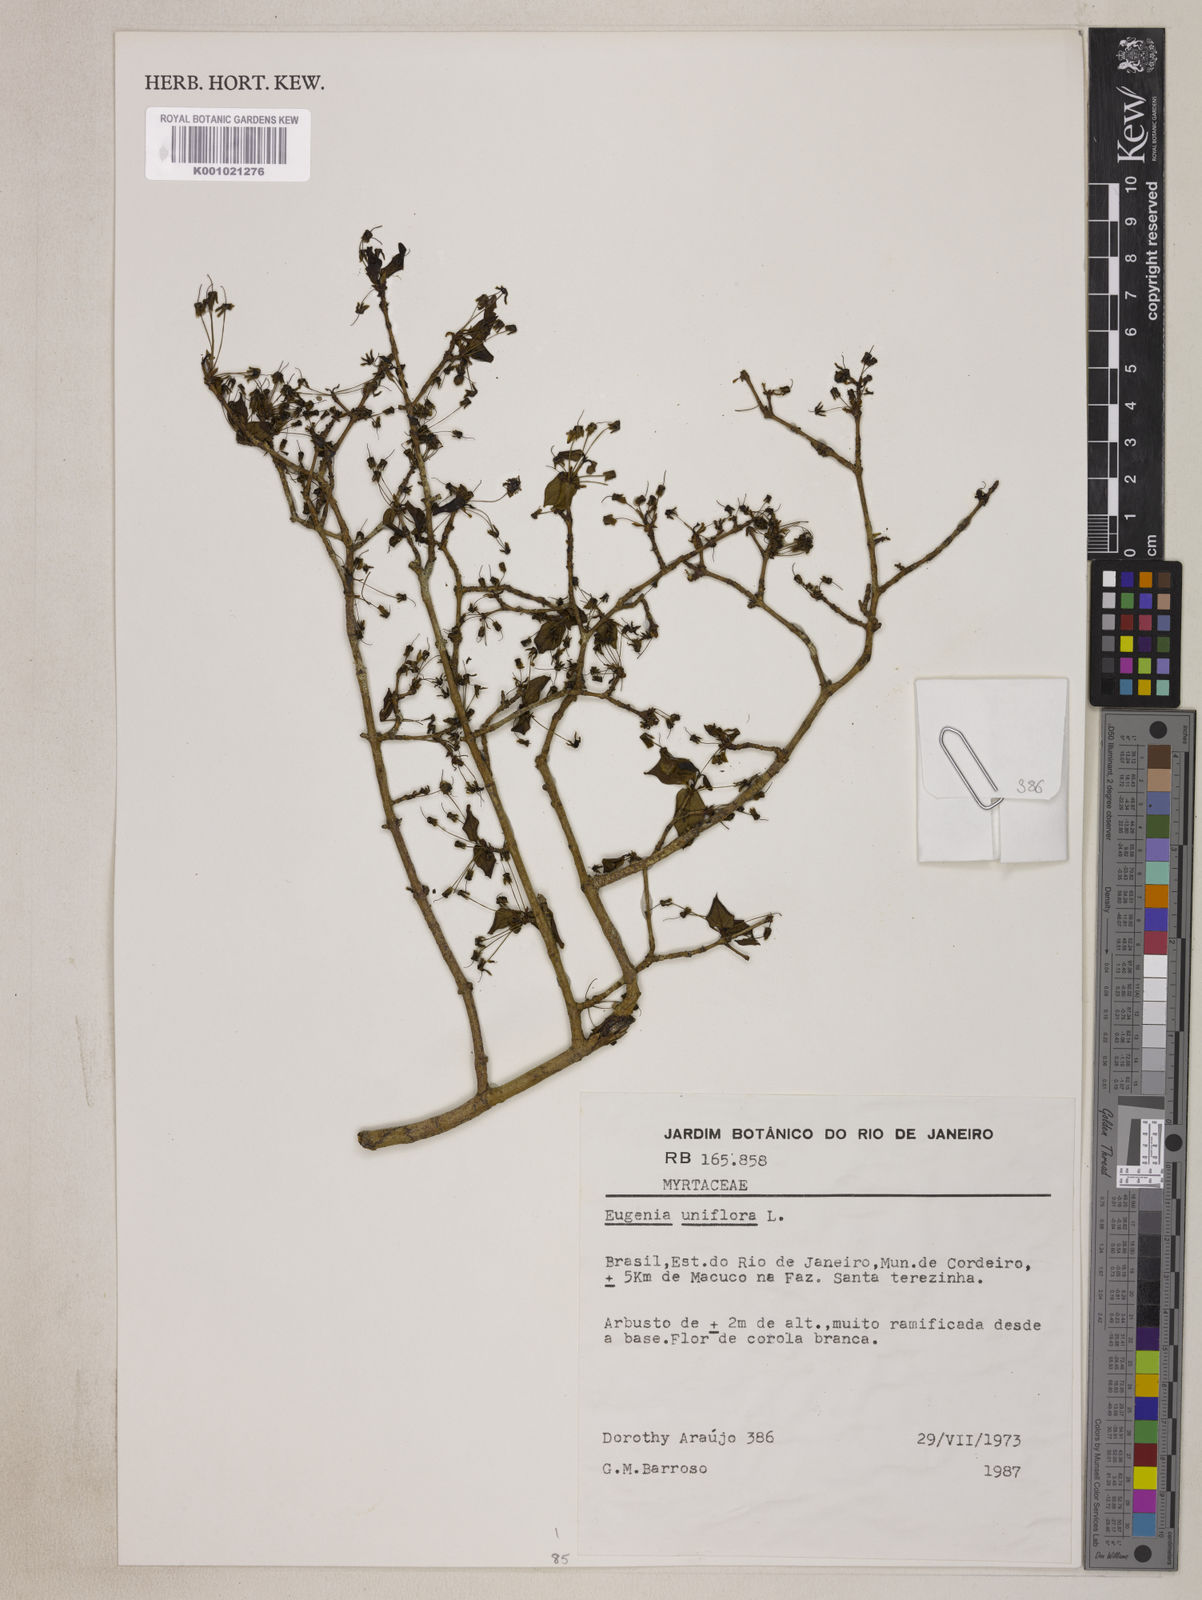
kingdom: Plantae
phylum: Tracheophyta
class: Magnoliopsida
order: Myrtales
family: Myrtaceae
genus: Eugenia
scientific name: Eugenia uniflora
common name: Surinam cherry
